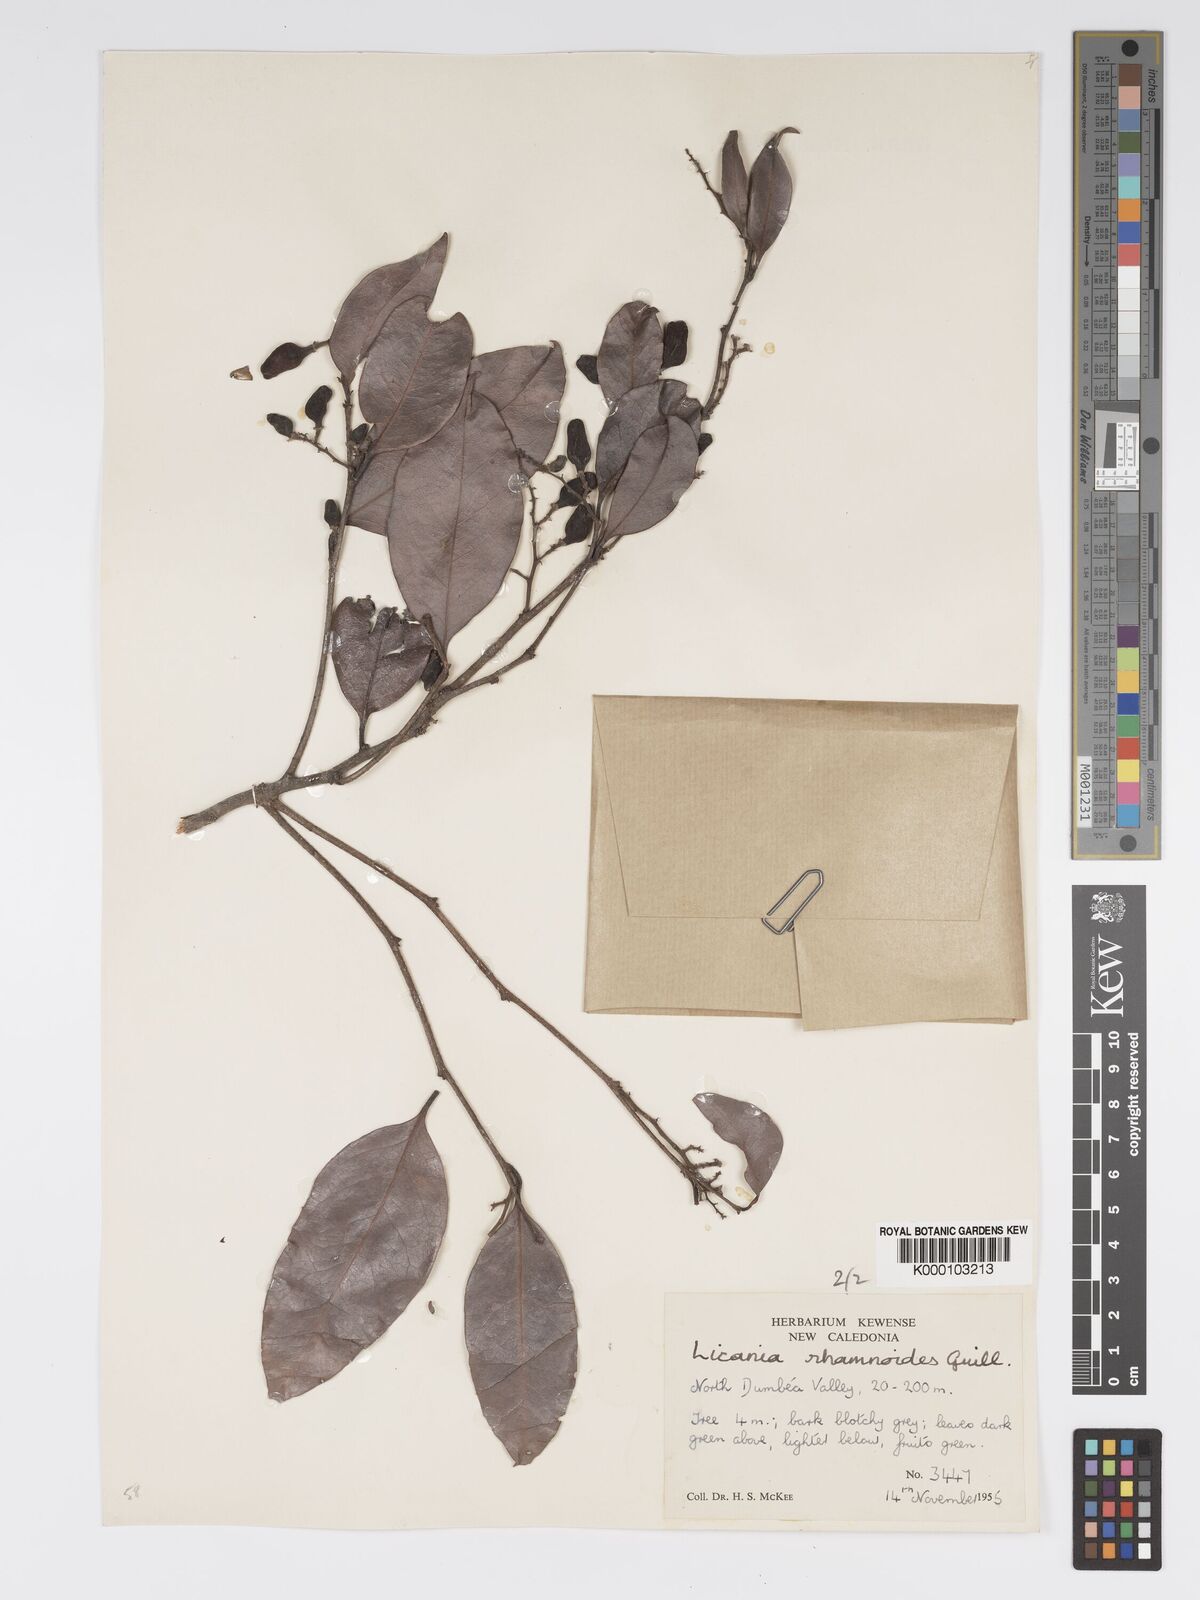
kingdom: Plantae
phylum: Tracheophyta
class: Magnoliopsida
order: Malpighiales
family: Chrysobalanaceae
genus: Hunga
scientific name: Hunga rhamnoides
